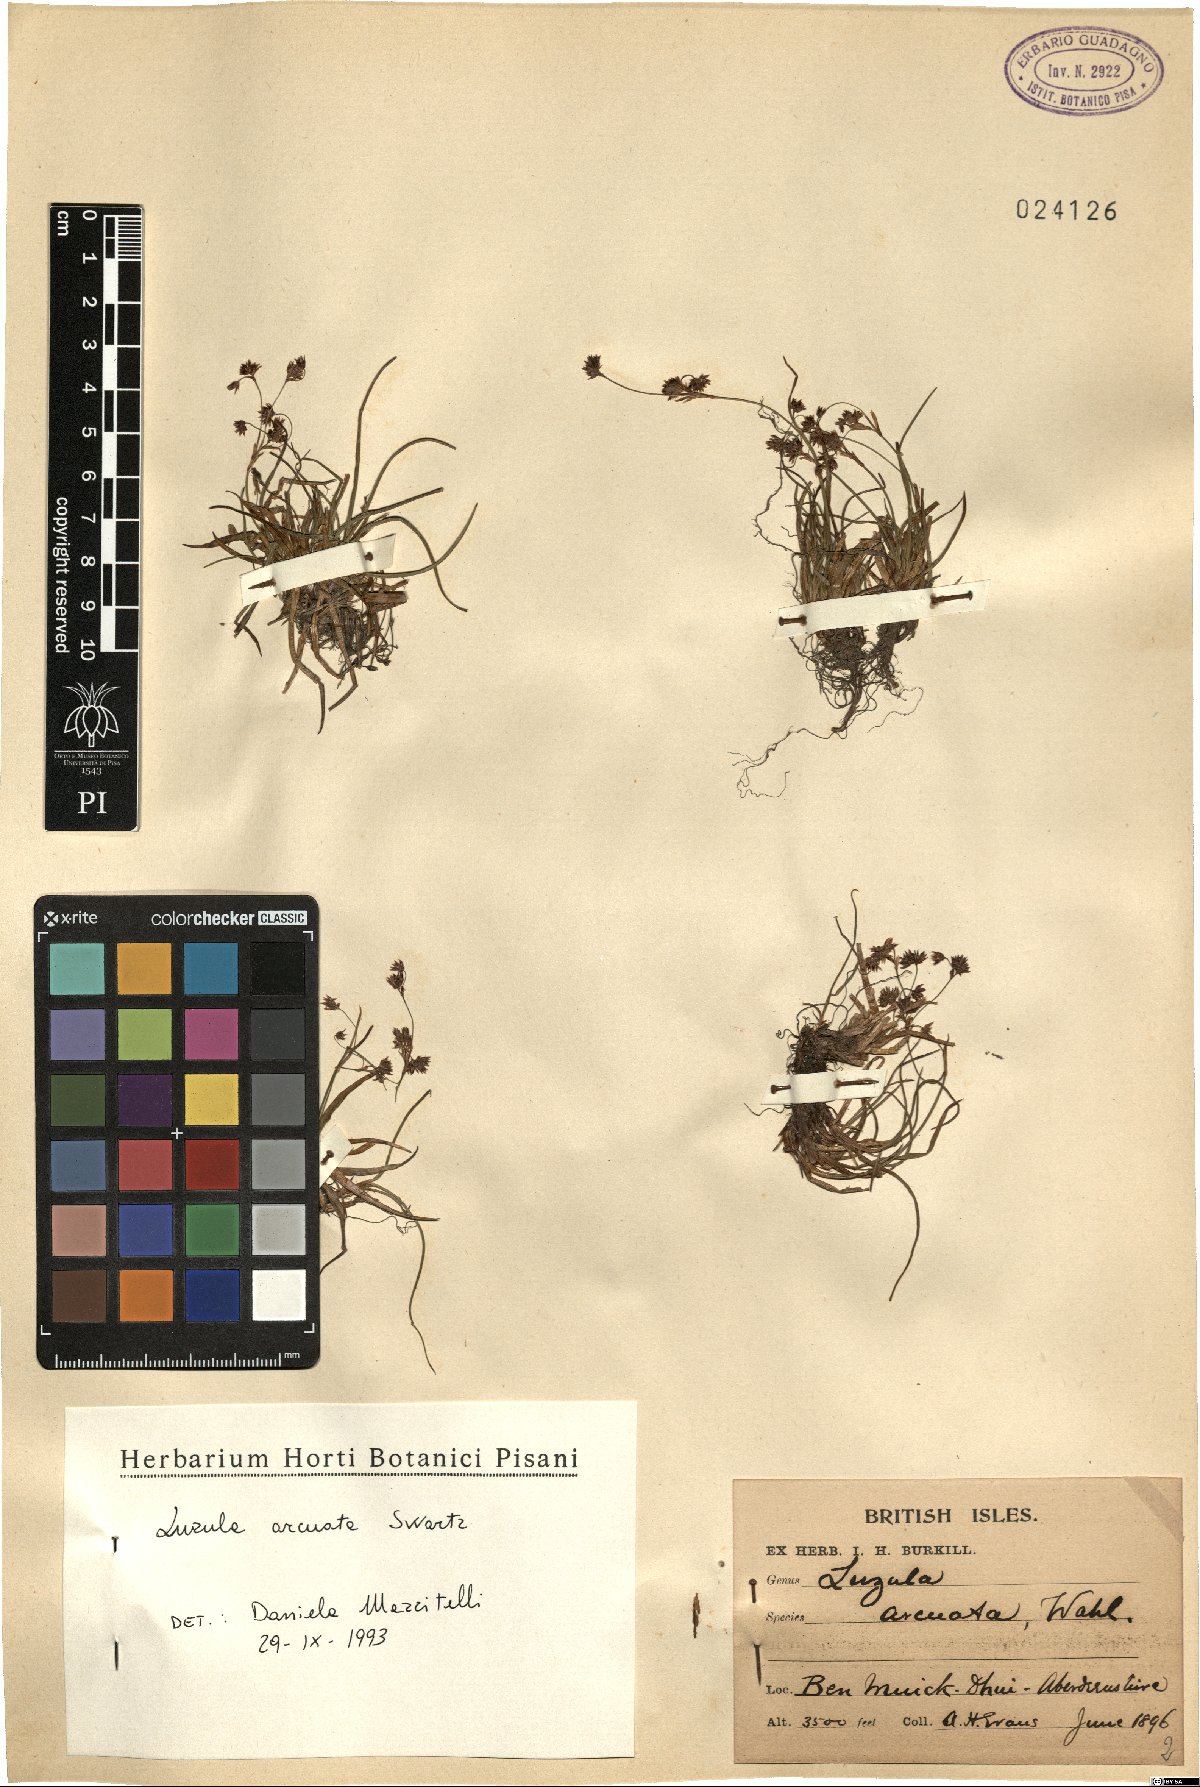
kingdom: Plantae
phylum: Tracheophyta
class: Liliopsida
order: Poales
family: Juncaceae
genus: Luzula
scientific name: Luzula arcuata
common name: Curved wood-rush
